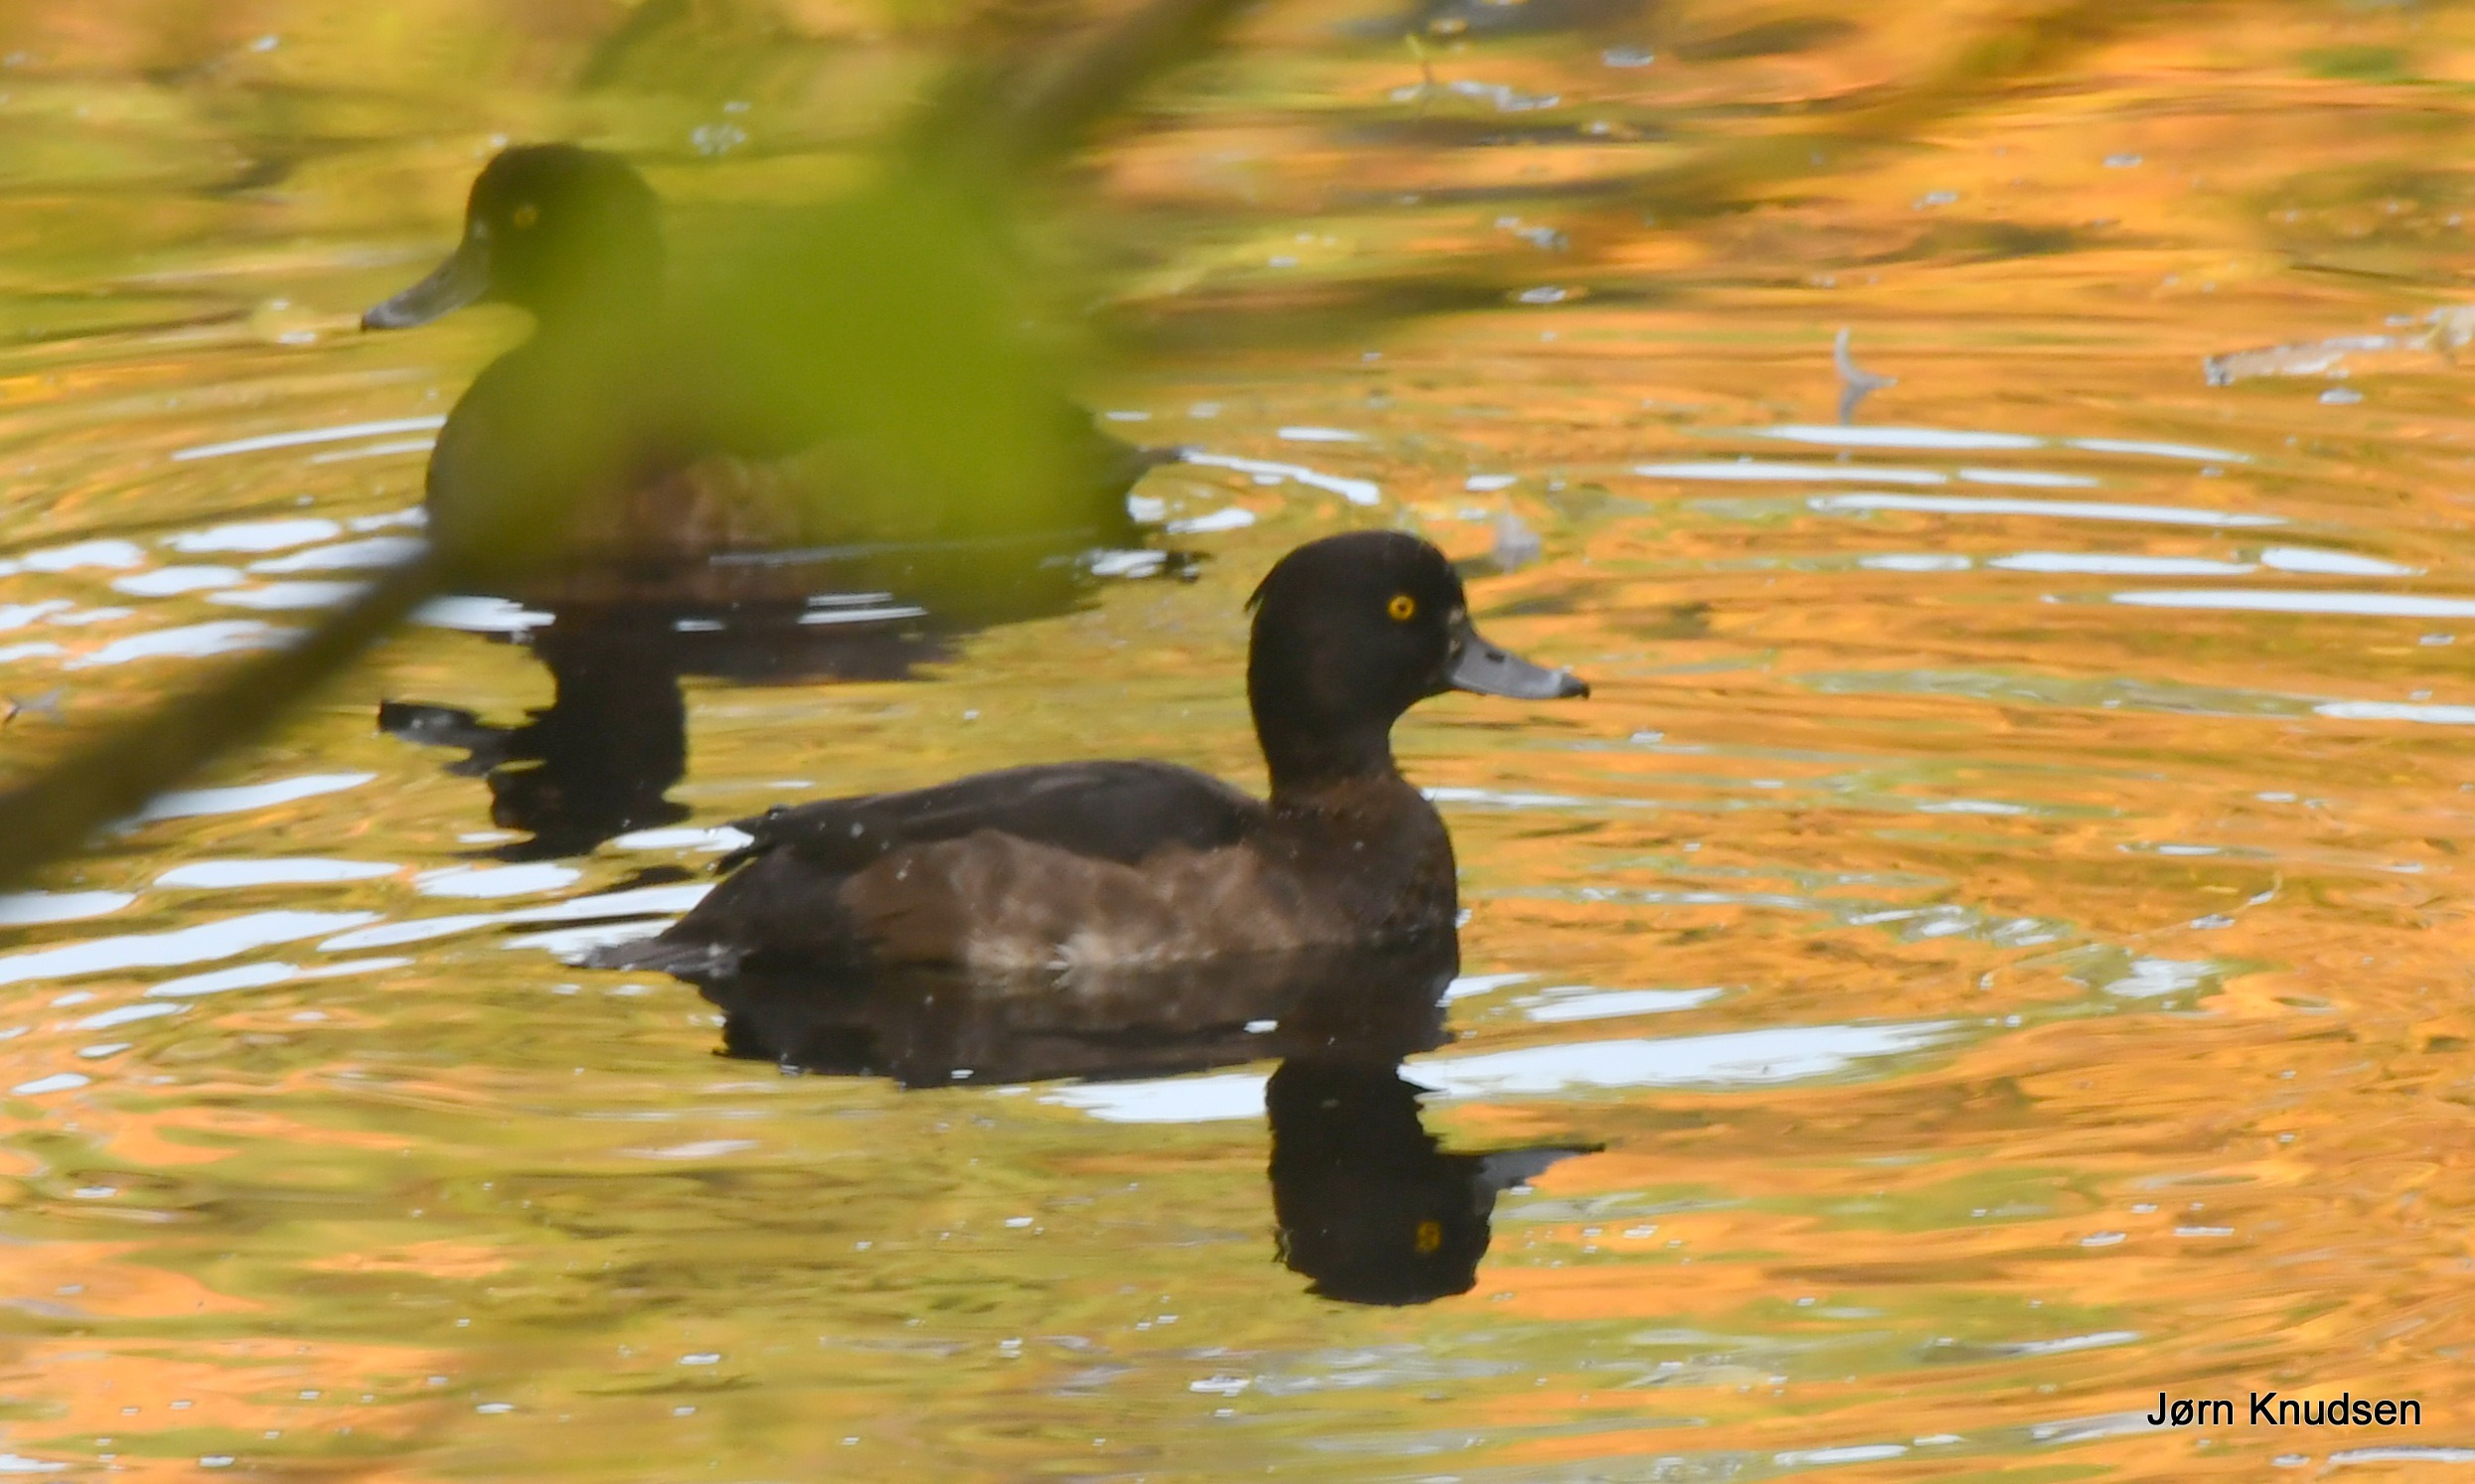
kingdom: Animalia
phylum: Chordata
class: Aves
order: Anseriformes
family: Anatidae
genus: Aythya
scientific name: Aythya fuligula
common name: Troldand
